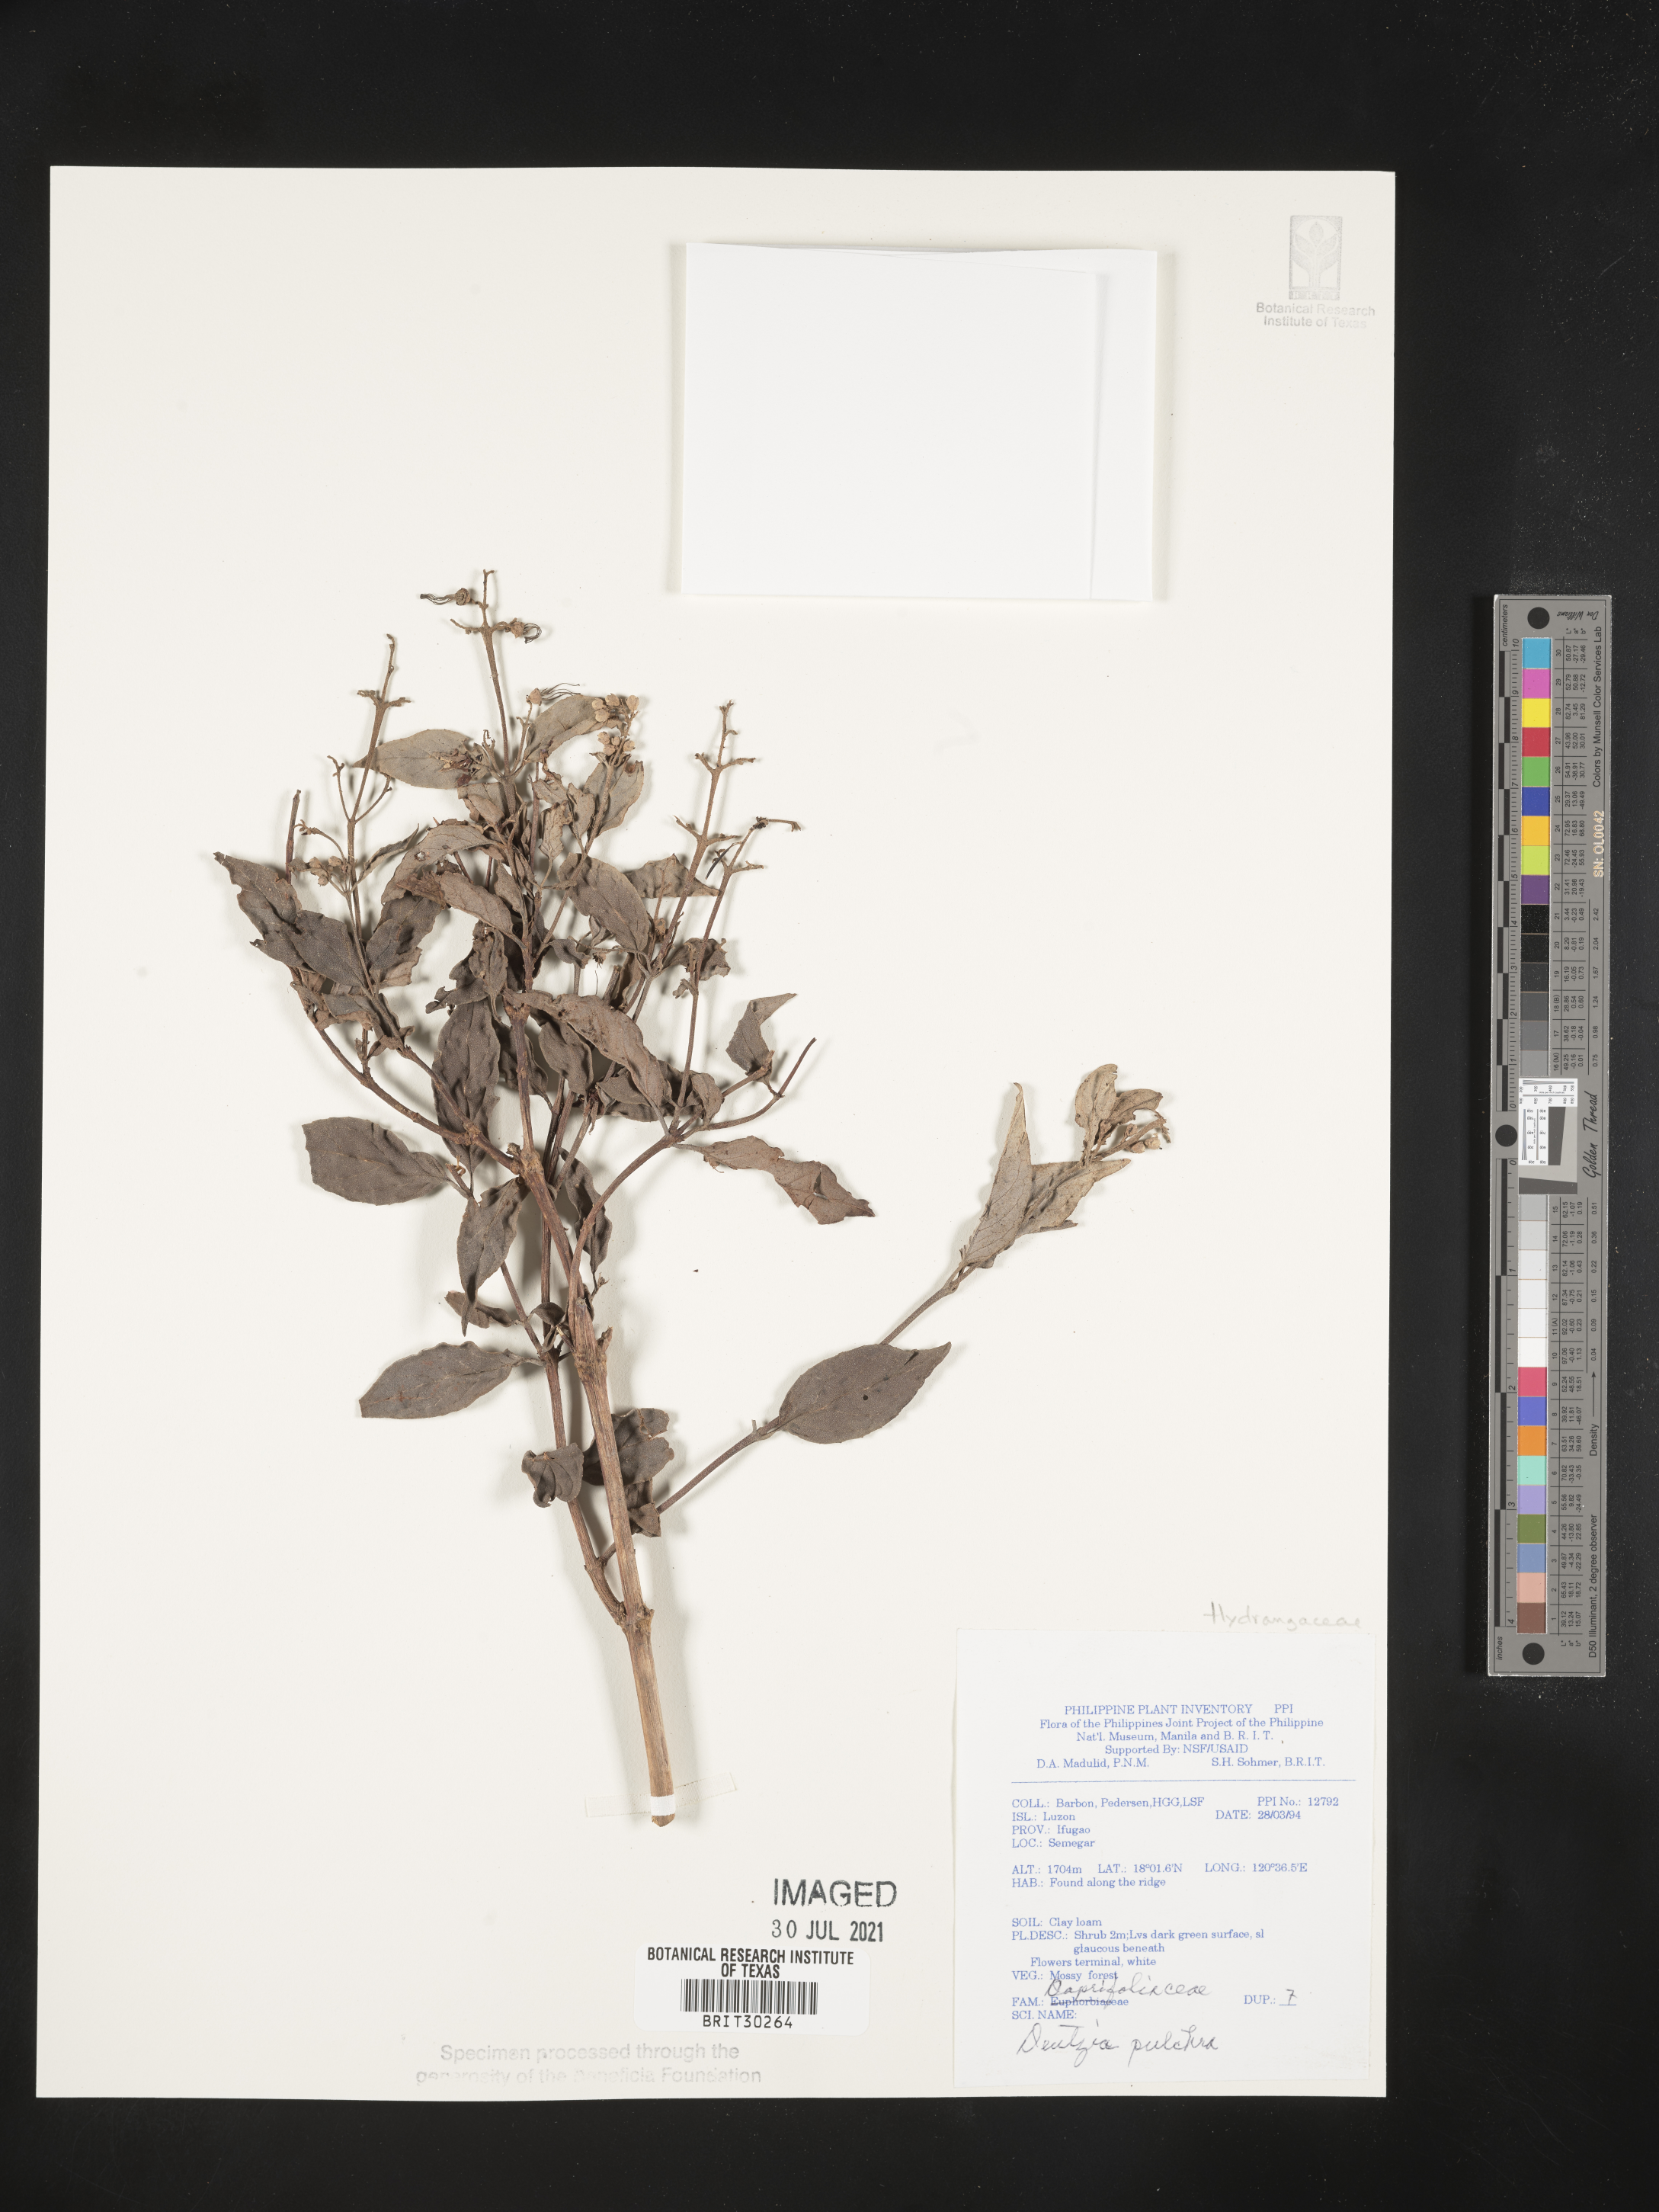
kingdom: Plantae
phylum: Tracheophyta
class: Magnoliopsida
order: Cornales
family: Hydrangeaceae
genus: Deutzia
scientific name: Deutzia pulchra
